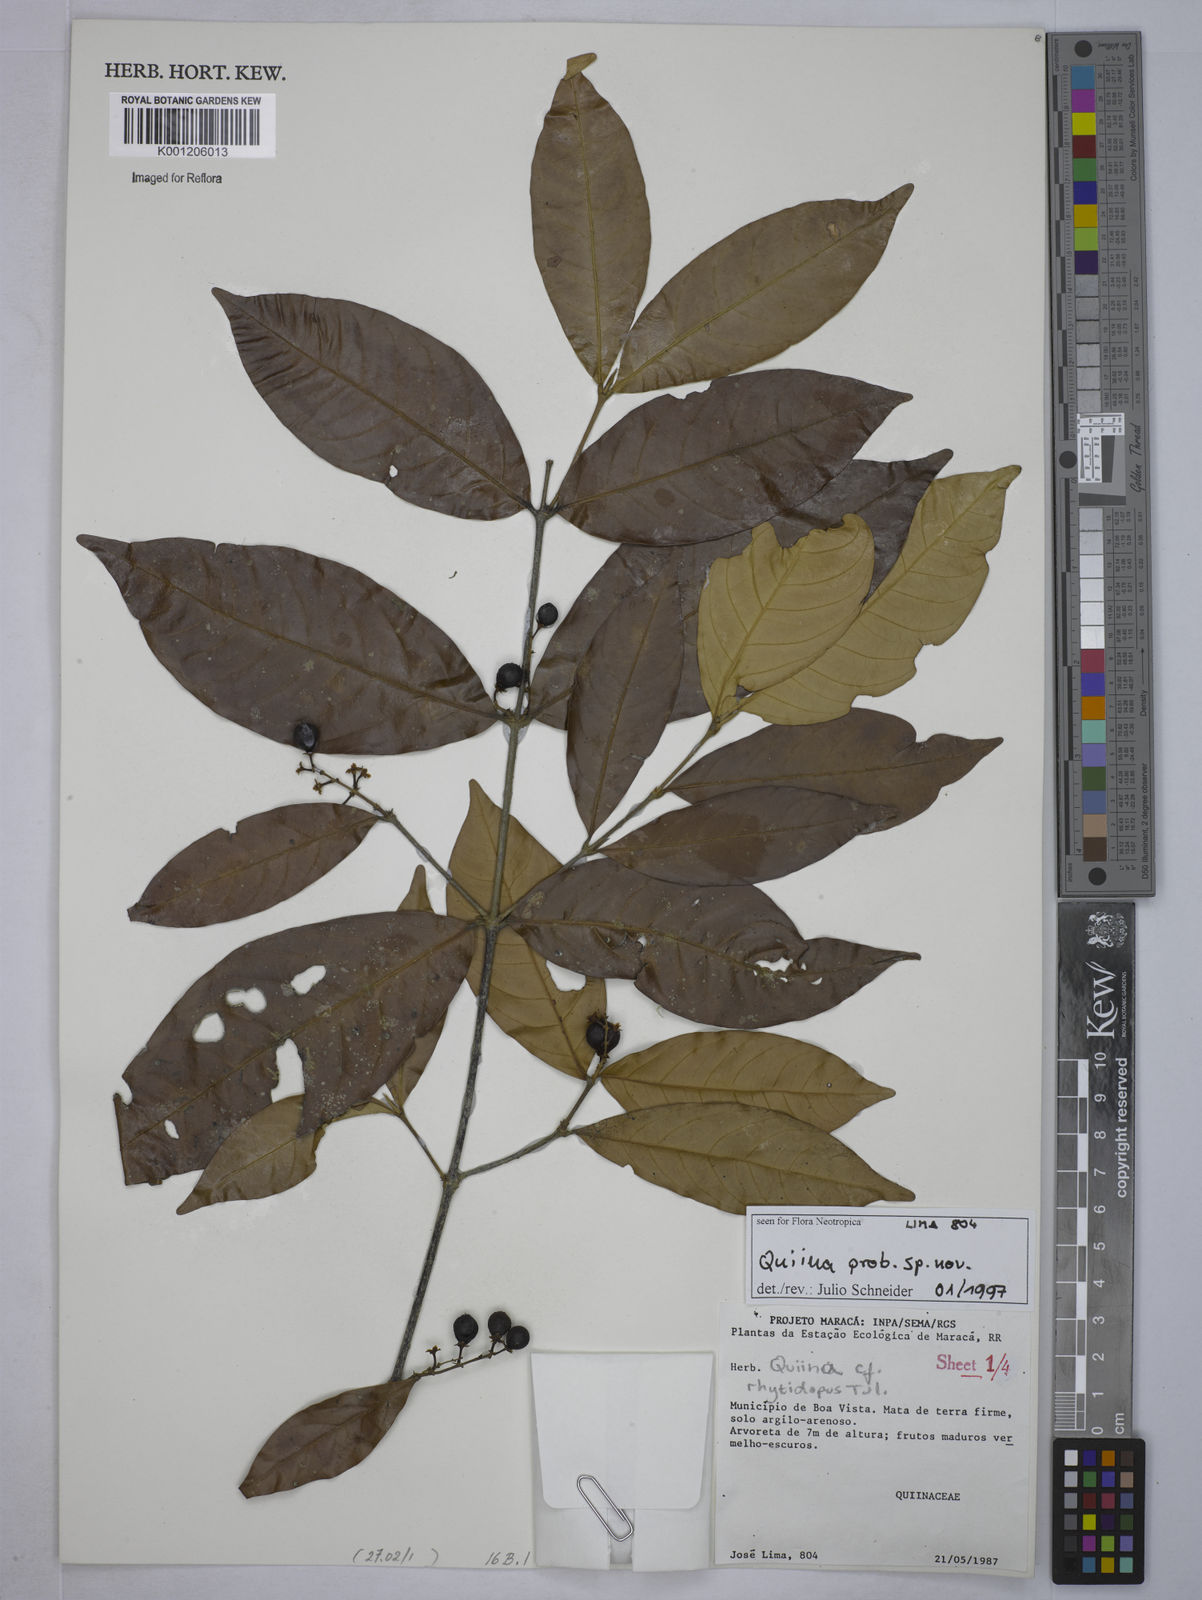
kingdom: Plantae
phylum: Tracheophyta
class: Magnoliopsida
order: Malpighiales
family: Quiinaceae
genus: Quiina
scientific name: Quiina
